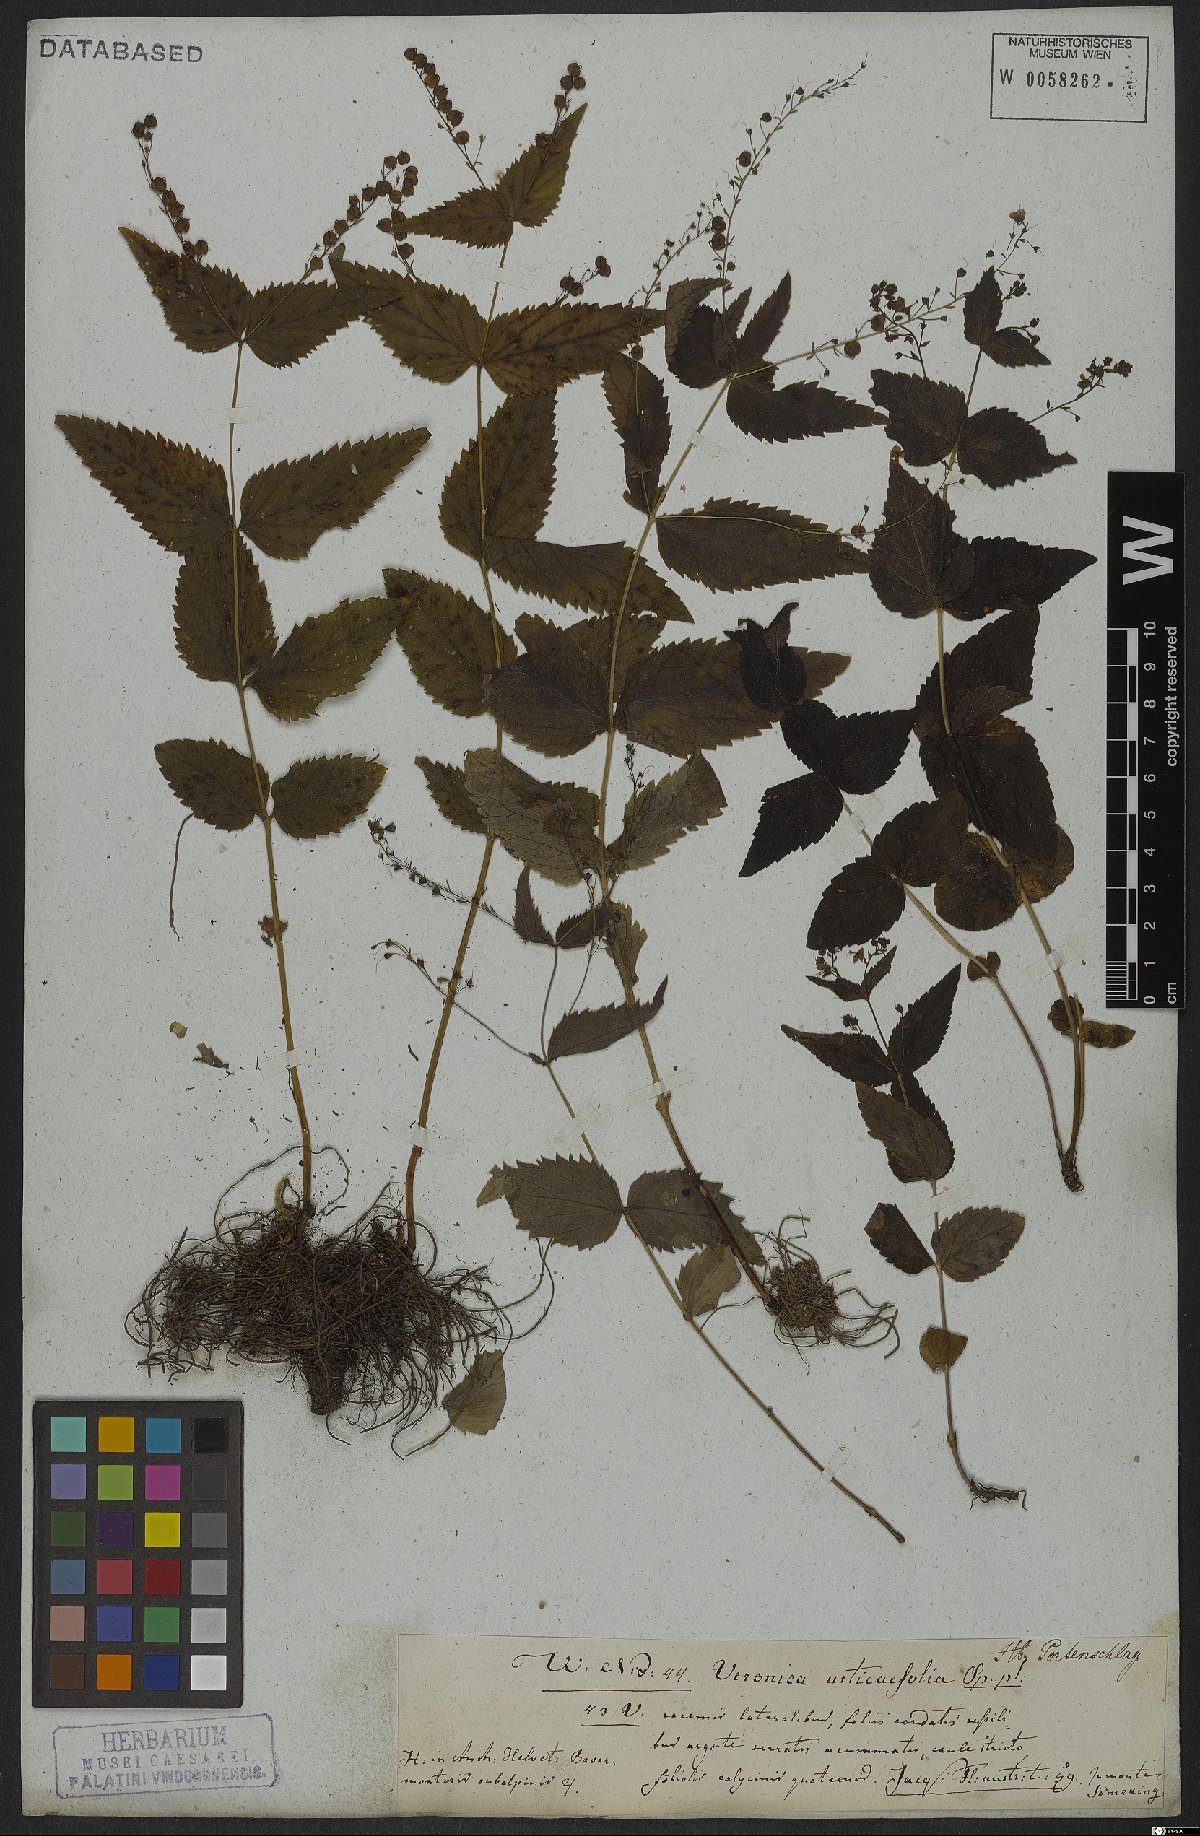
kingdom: Plantae
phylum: Tracheophyta
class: Magnoliopsida
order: Lamiales
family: Plantaginaceae
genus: Veronica
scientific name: Veronica urticifolia
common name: Nettle-leaf speedwell
